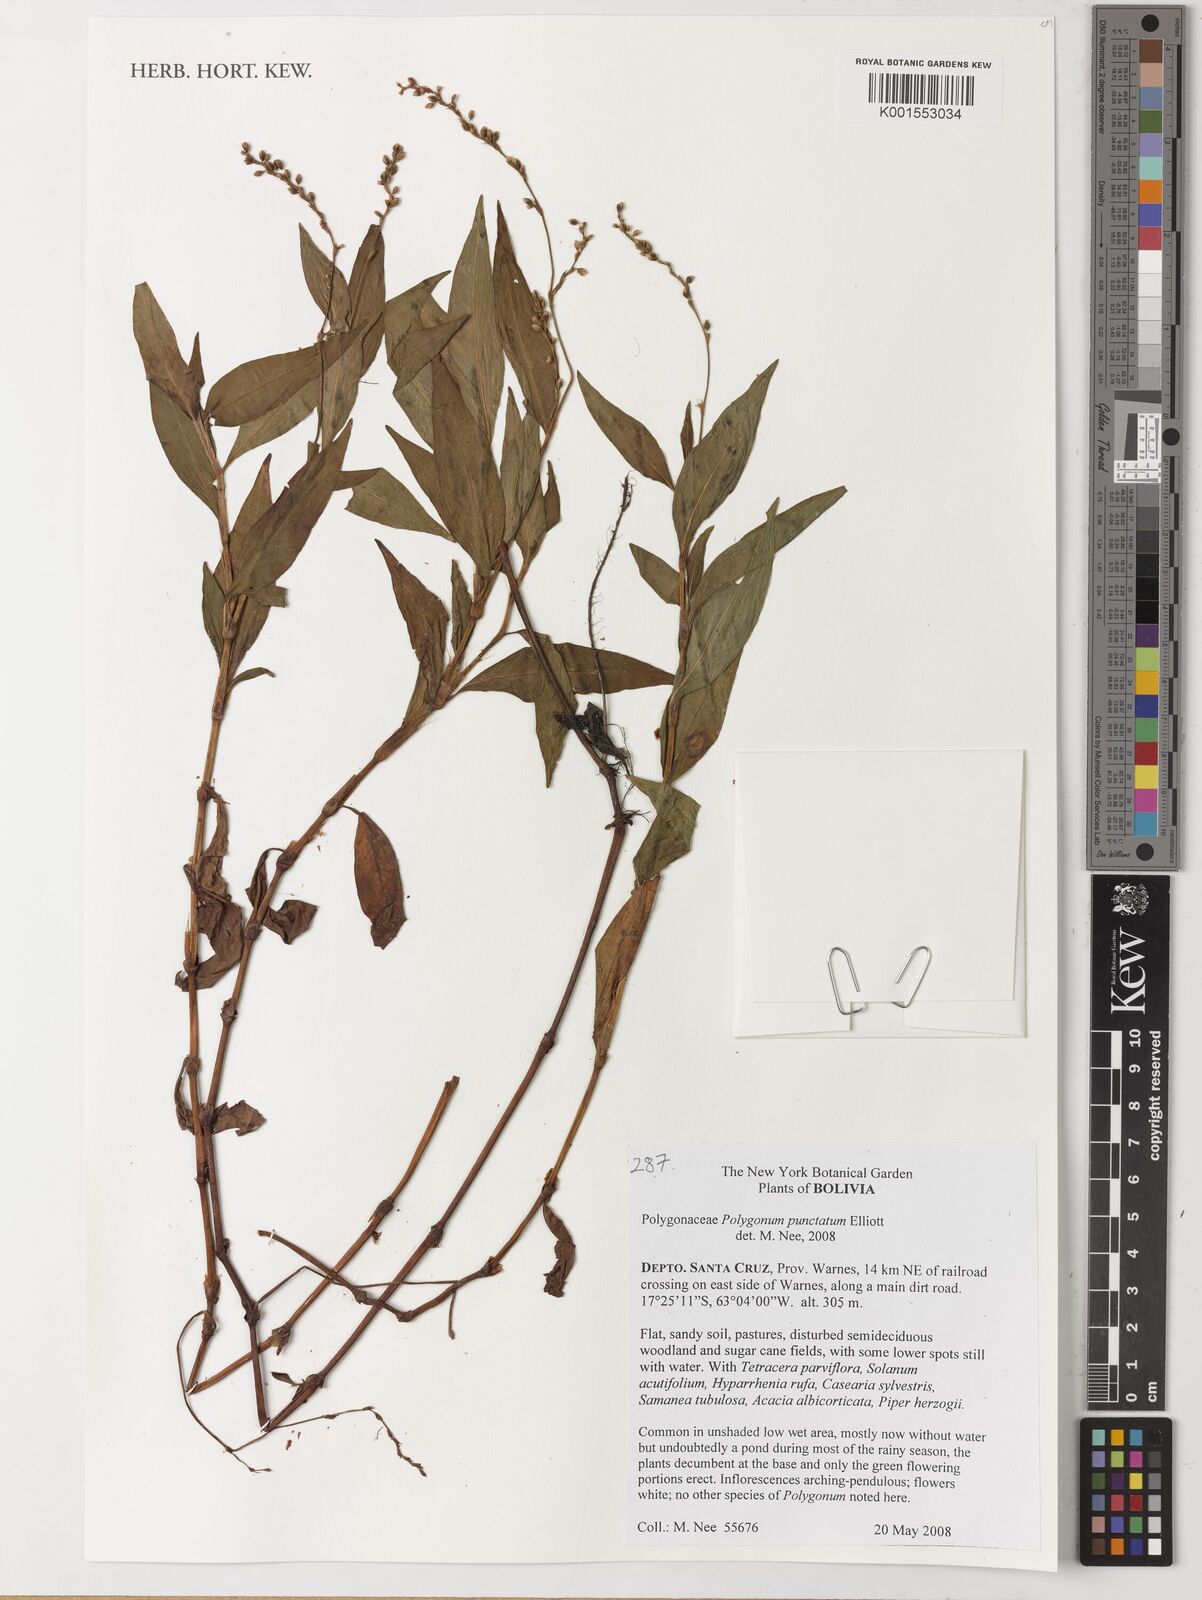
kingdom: Plantae
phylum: Tracheophyta
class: Magnoliopsida
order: Caryophyllales
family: Polygonaceae
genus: Persicaria
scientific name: Persicaria punctata
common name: Dotted smartweed
